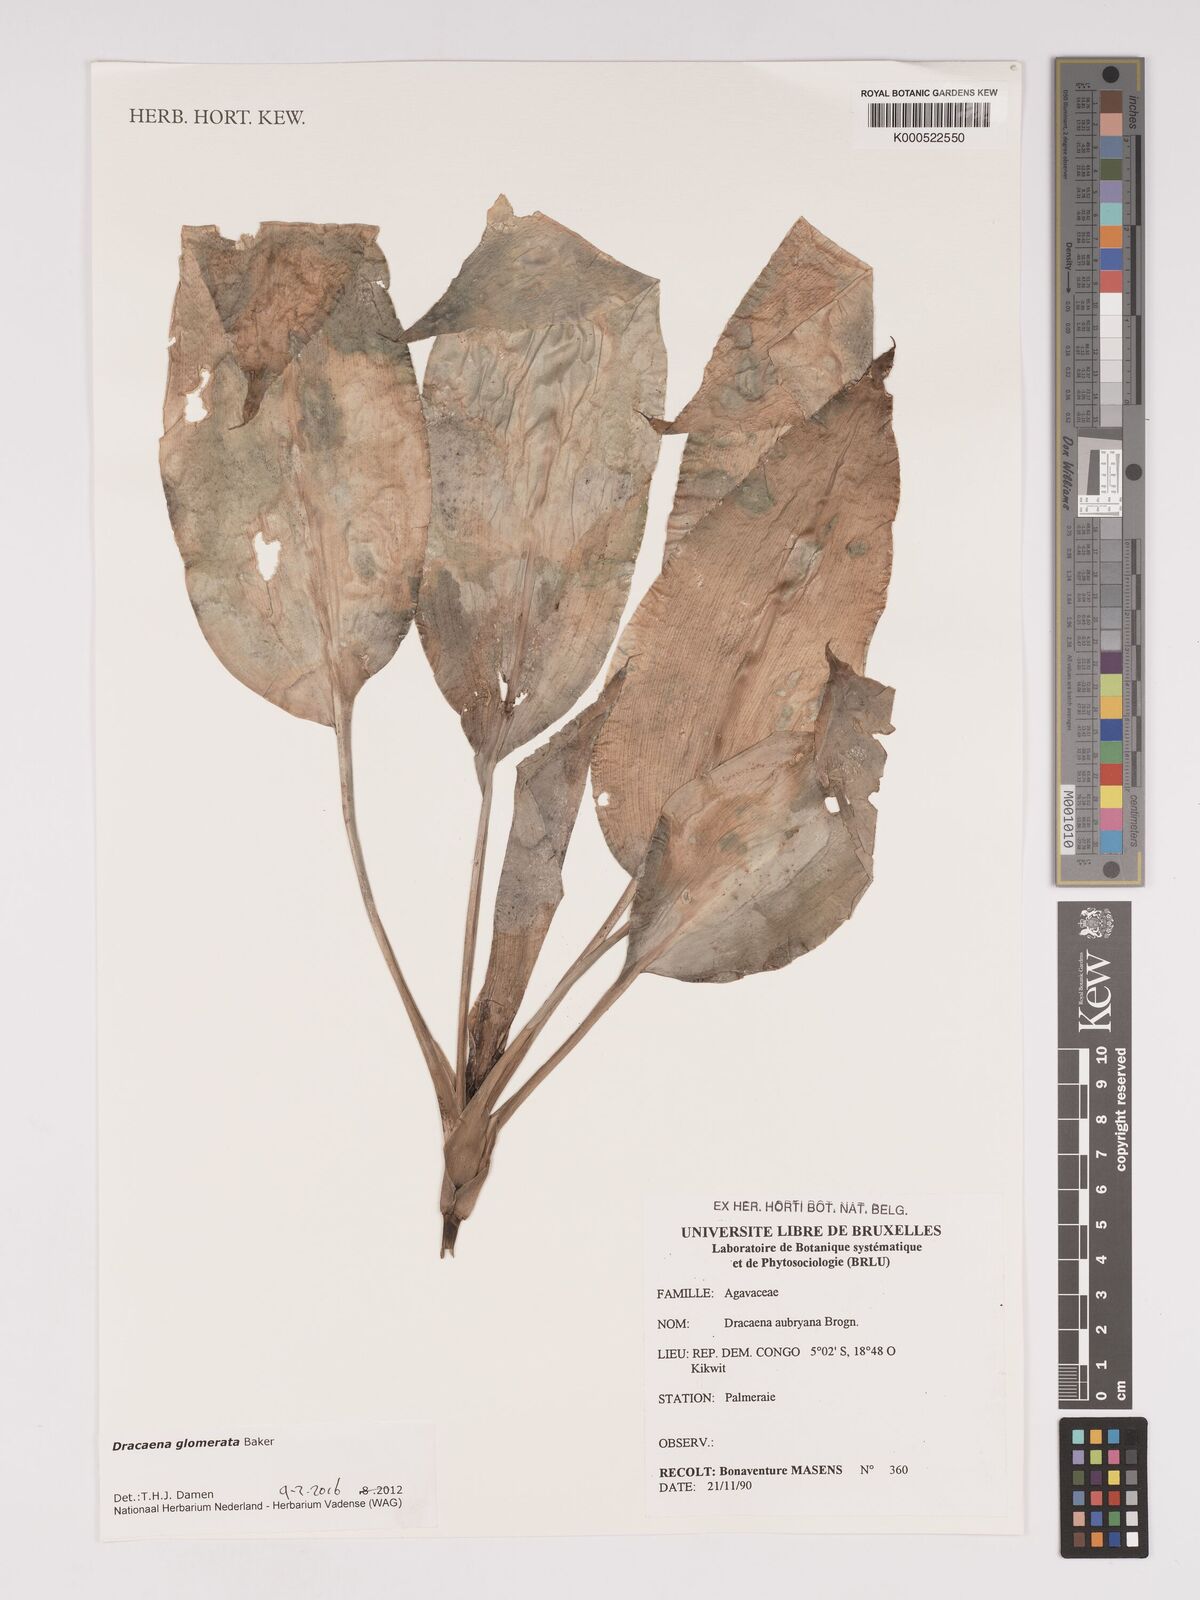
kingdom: Plantae
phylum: Tracheophyta
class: Liliopsida
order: Asparagales
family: Asparagaceae
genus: Dracaena
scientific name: Dracaena glomerata
